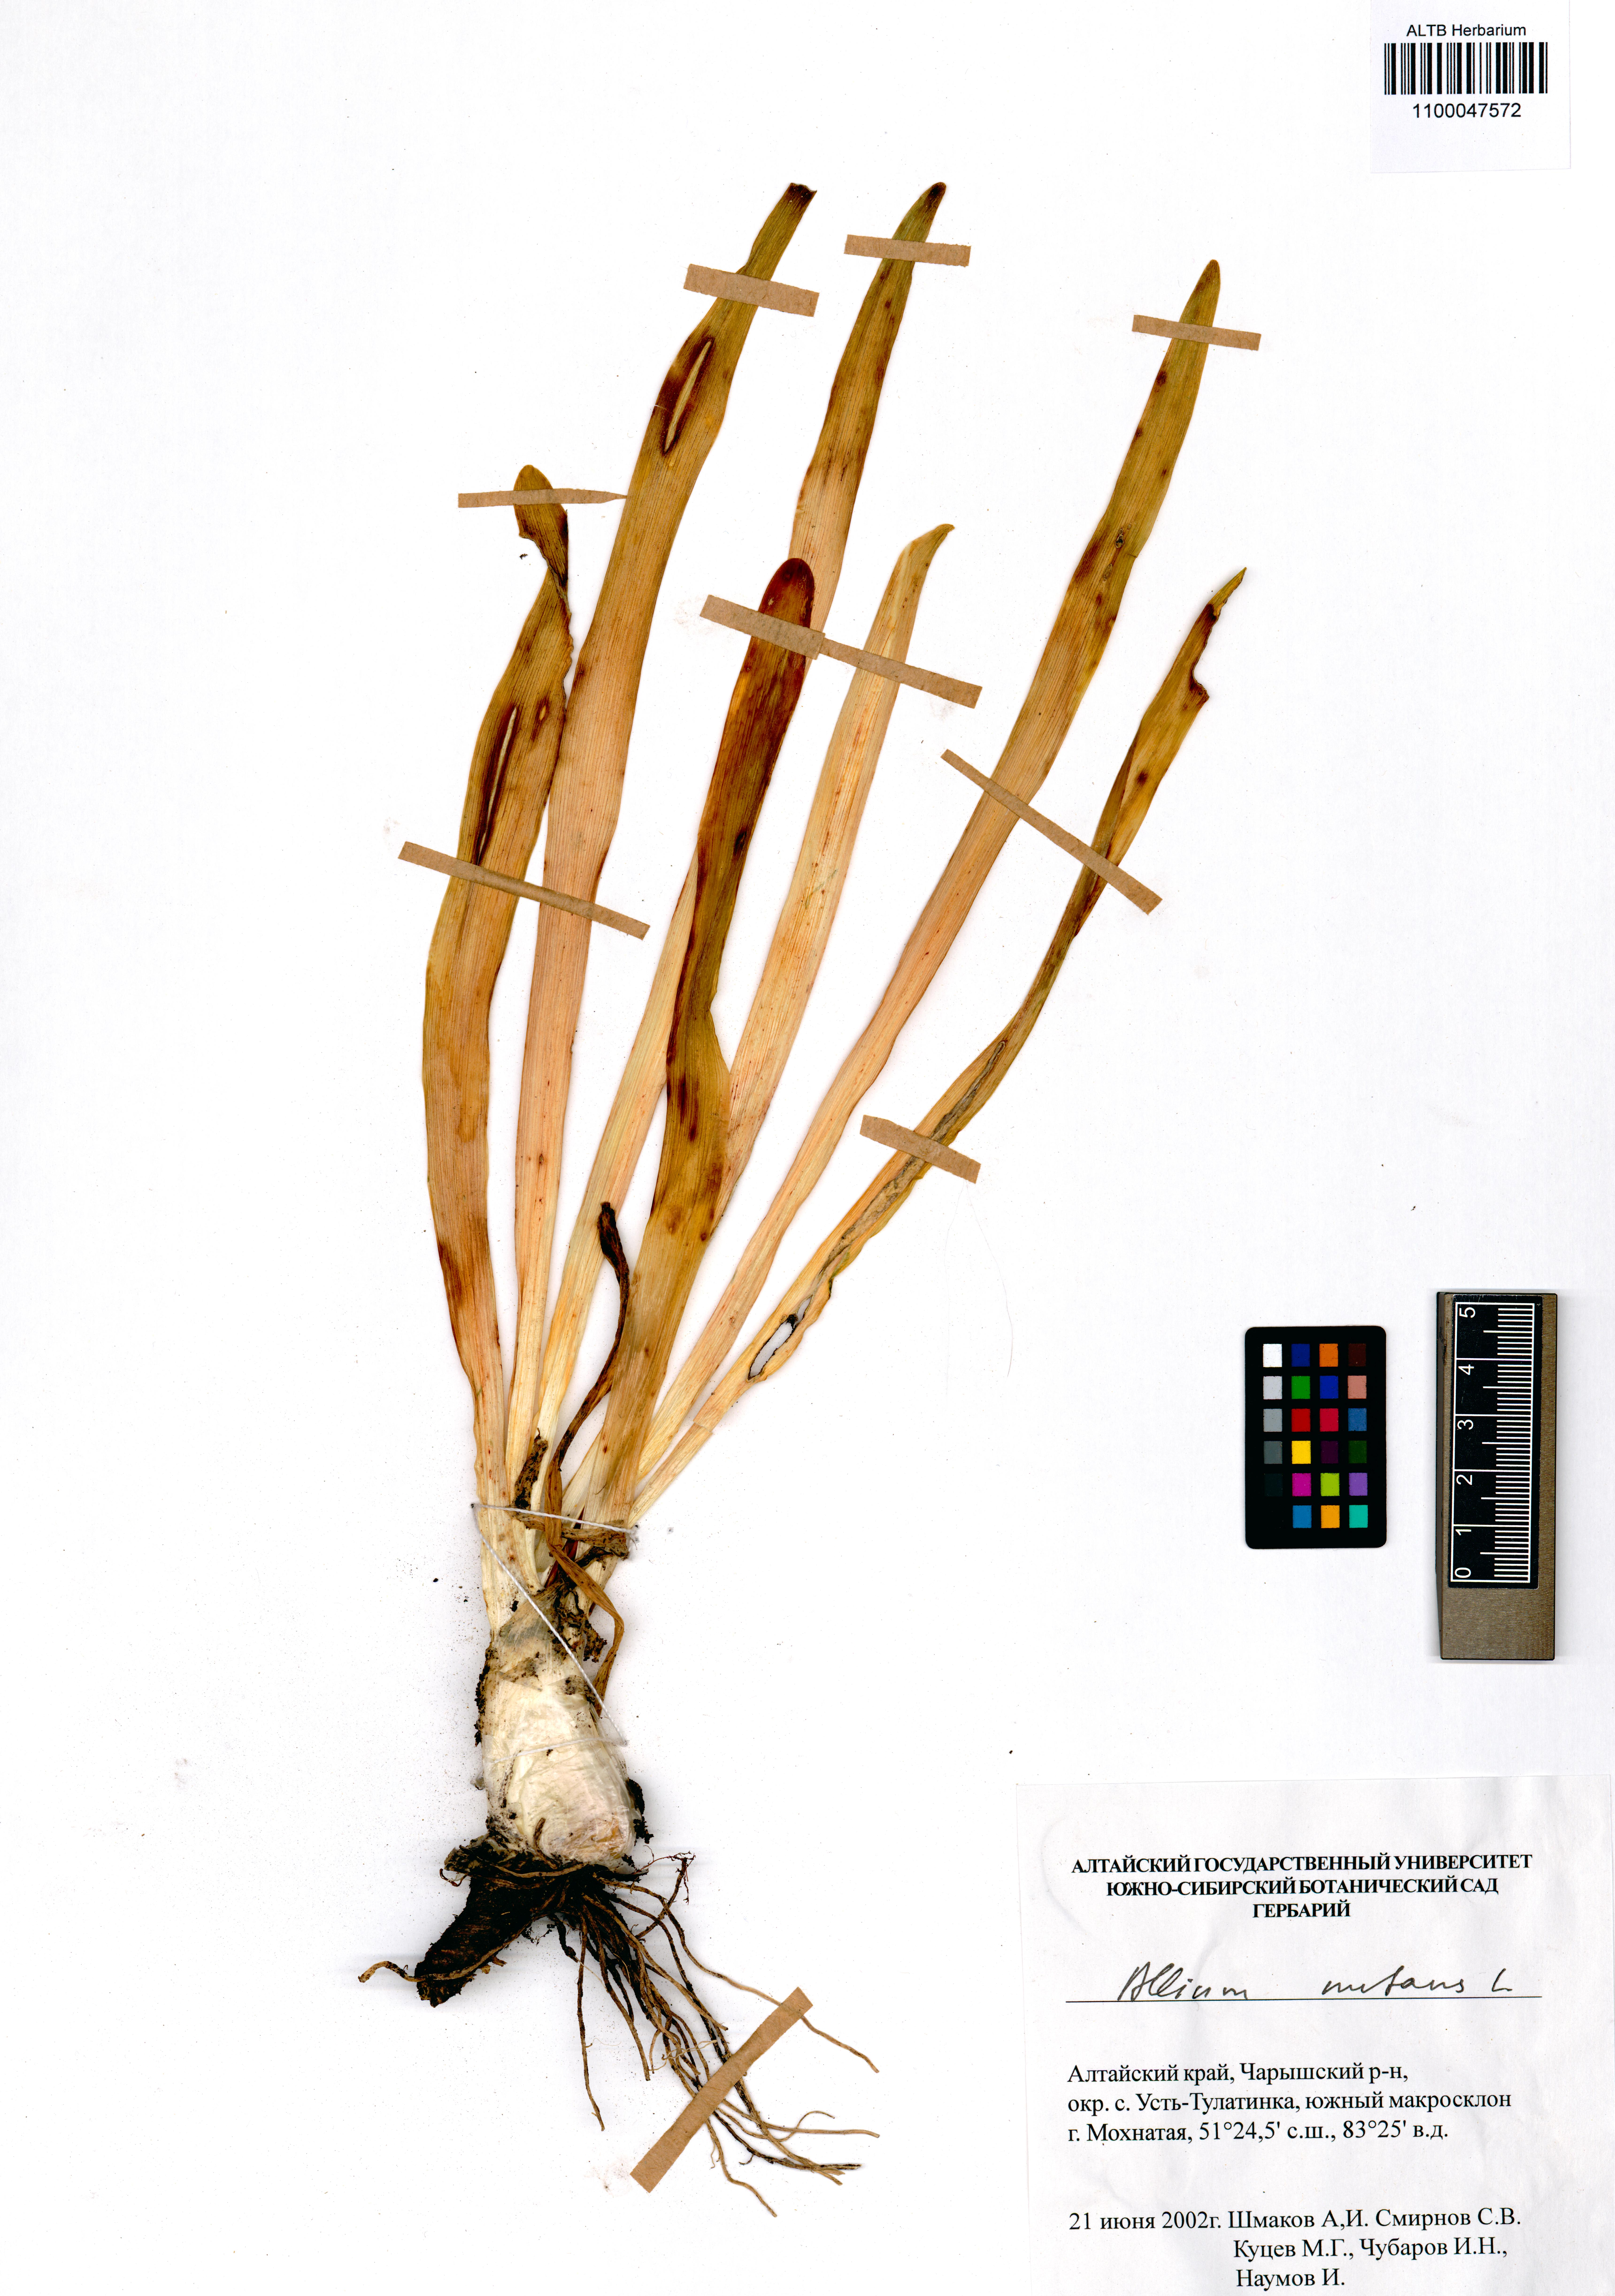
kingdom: Plantae
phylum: Tracheophyta
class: Liliopsida
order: Asparagales
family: Amaryllidaceae
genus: Allium
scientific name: Allium nutans
